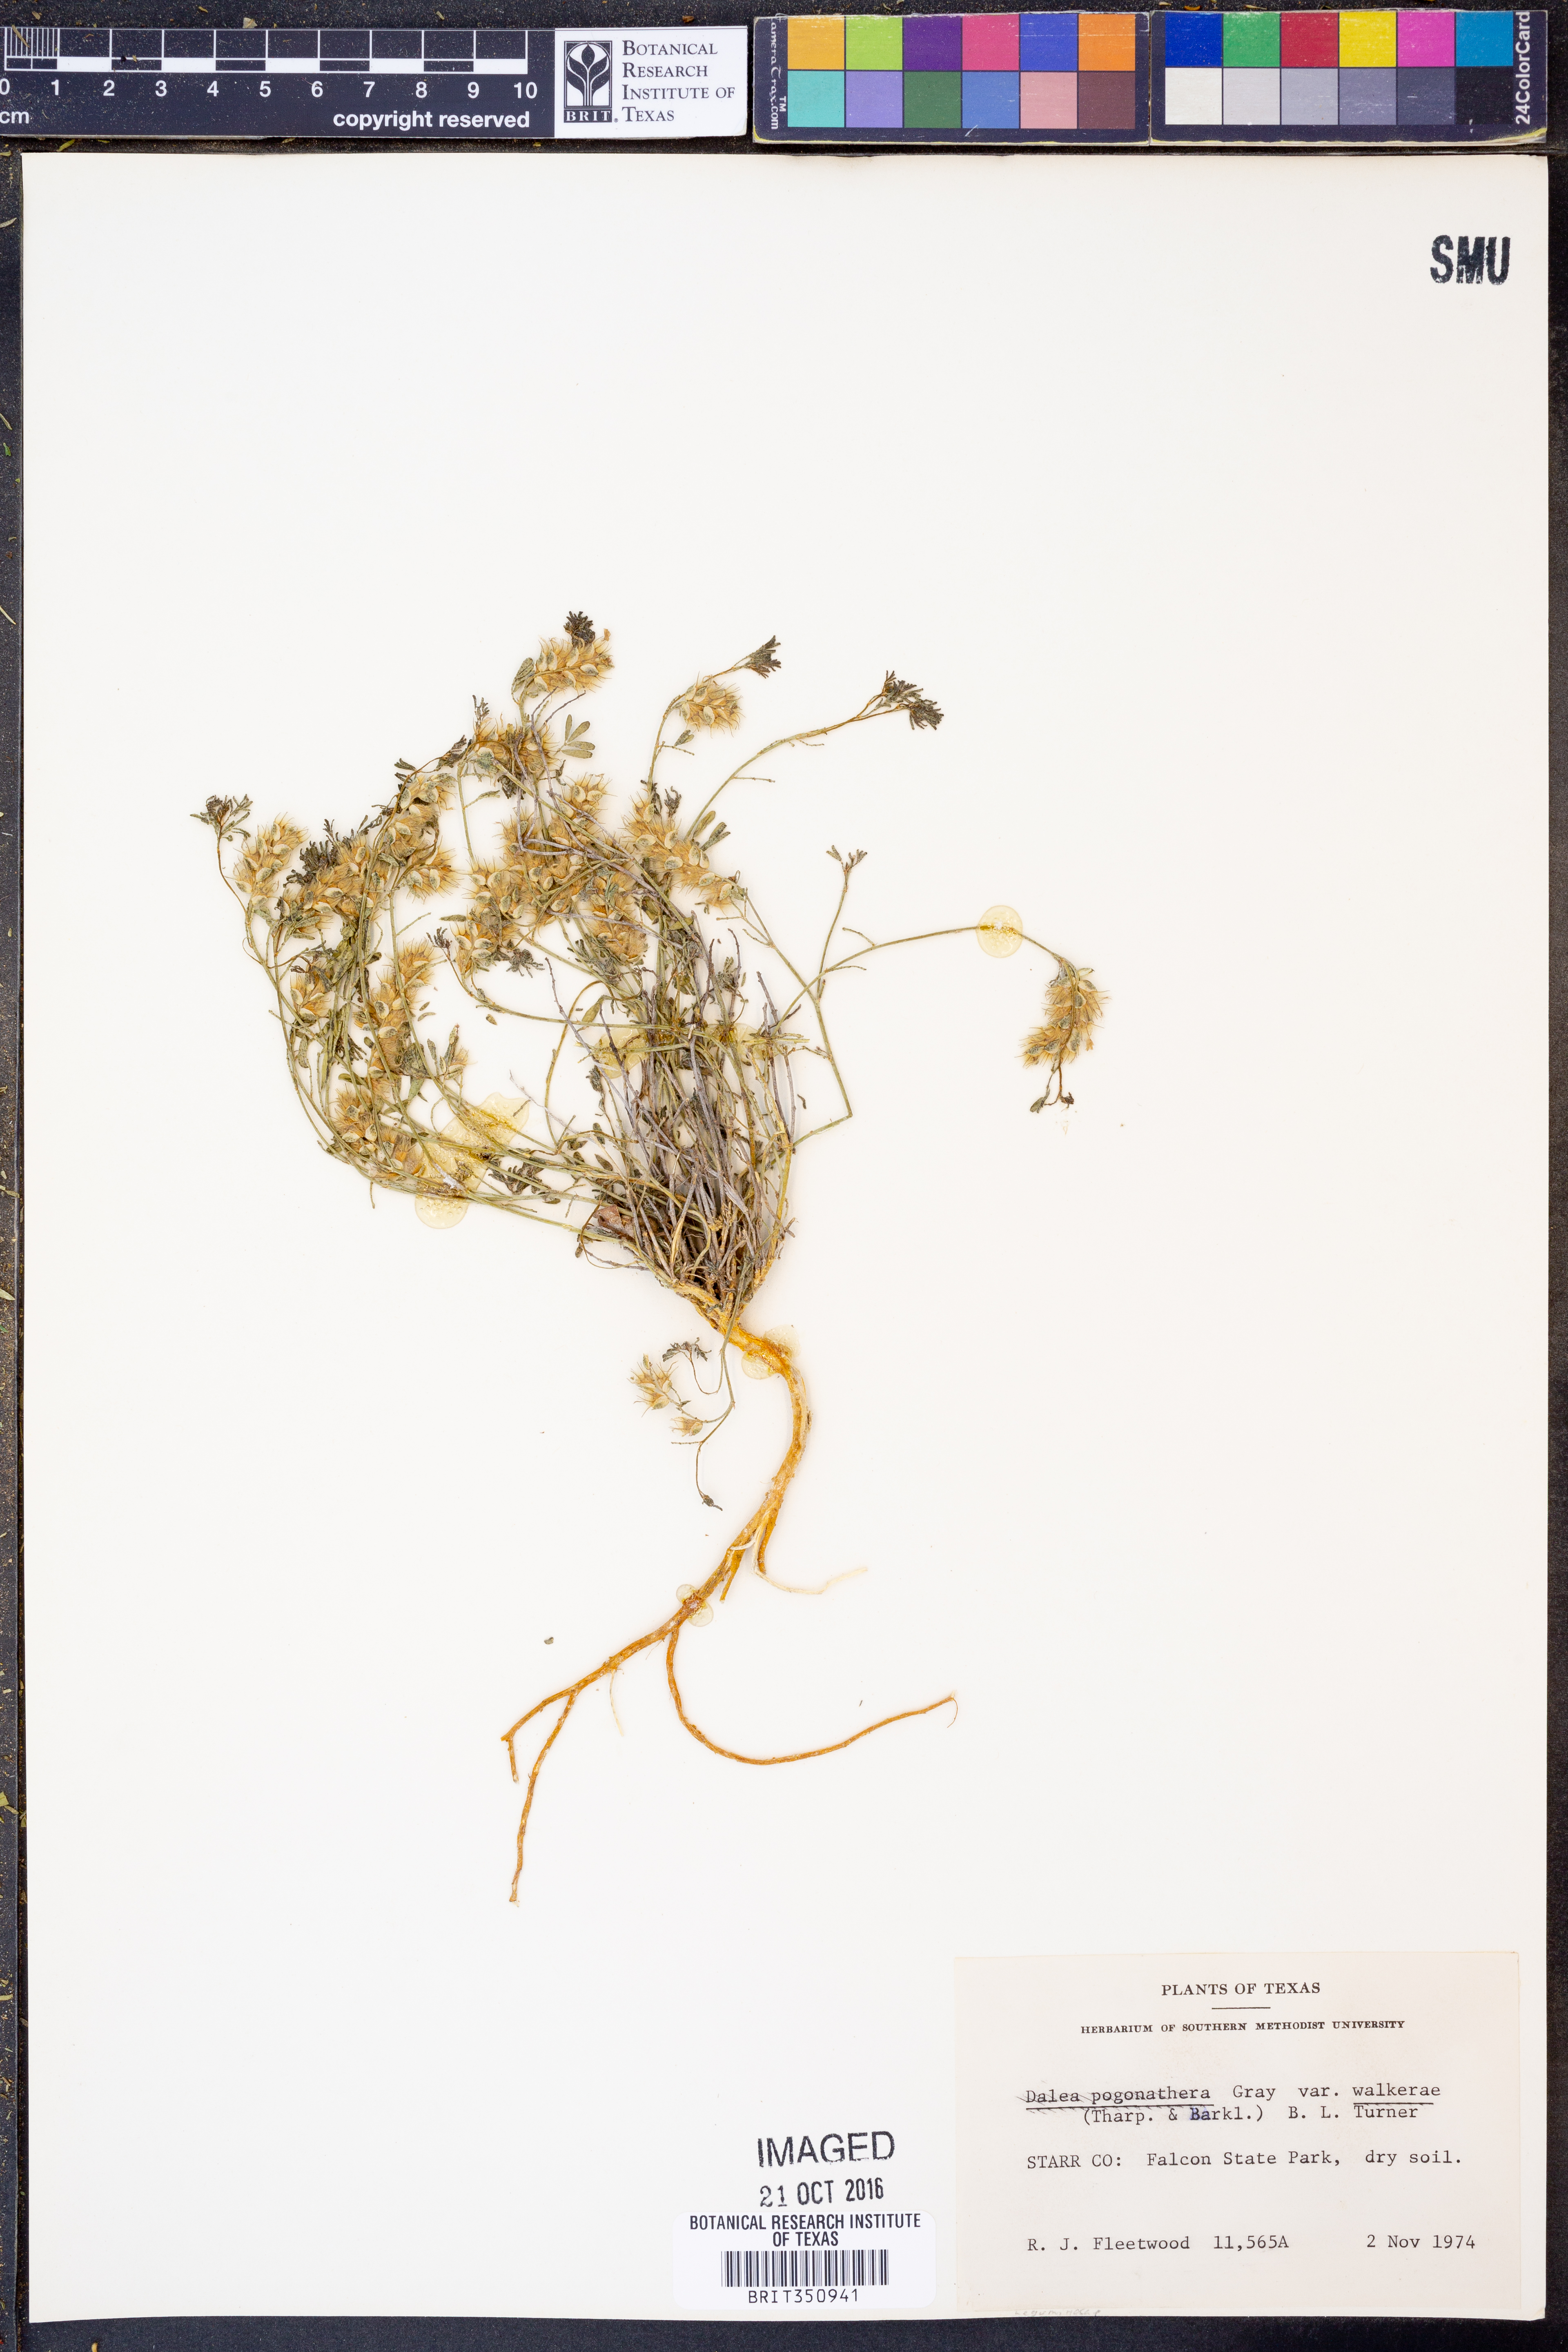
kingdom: Plantae
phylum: Tracheophyta
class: Magnoliopsida
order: Fabales
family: Fabaceae
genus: Dalea
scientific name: Dalea pogonathera
